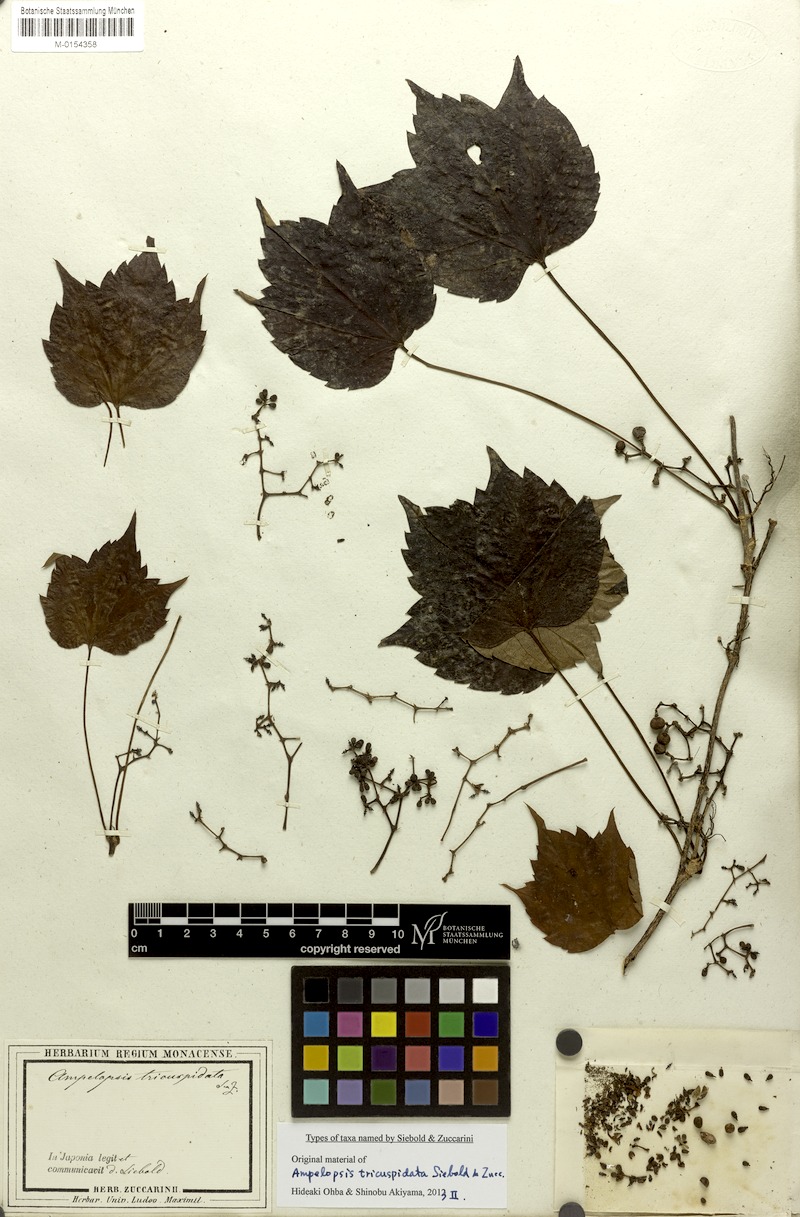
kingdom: Plantae
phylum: Tracheophyta
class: Magnoliopsida
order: Vitales
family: Vitaceae
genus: Parthenocissus
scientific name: Parthenocissus tricuspidata
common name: Boston ivy
